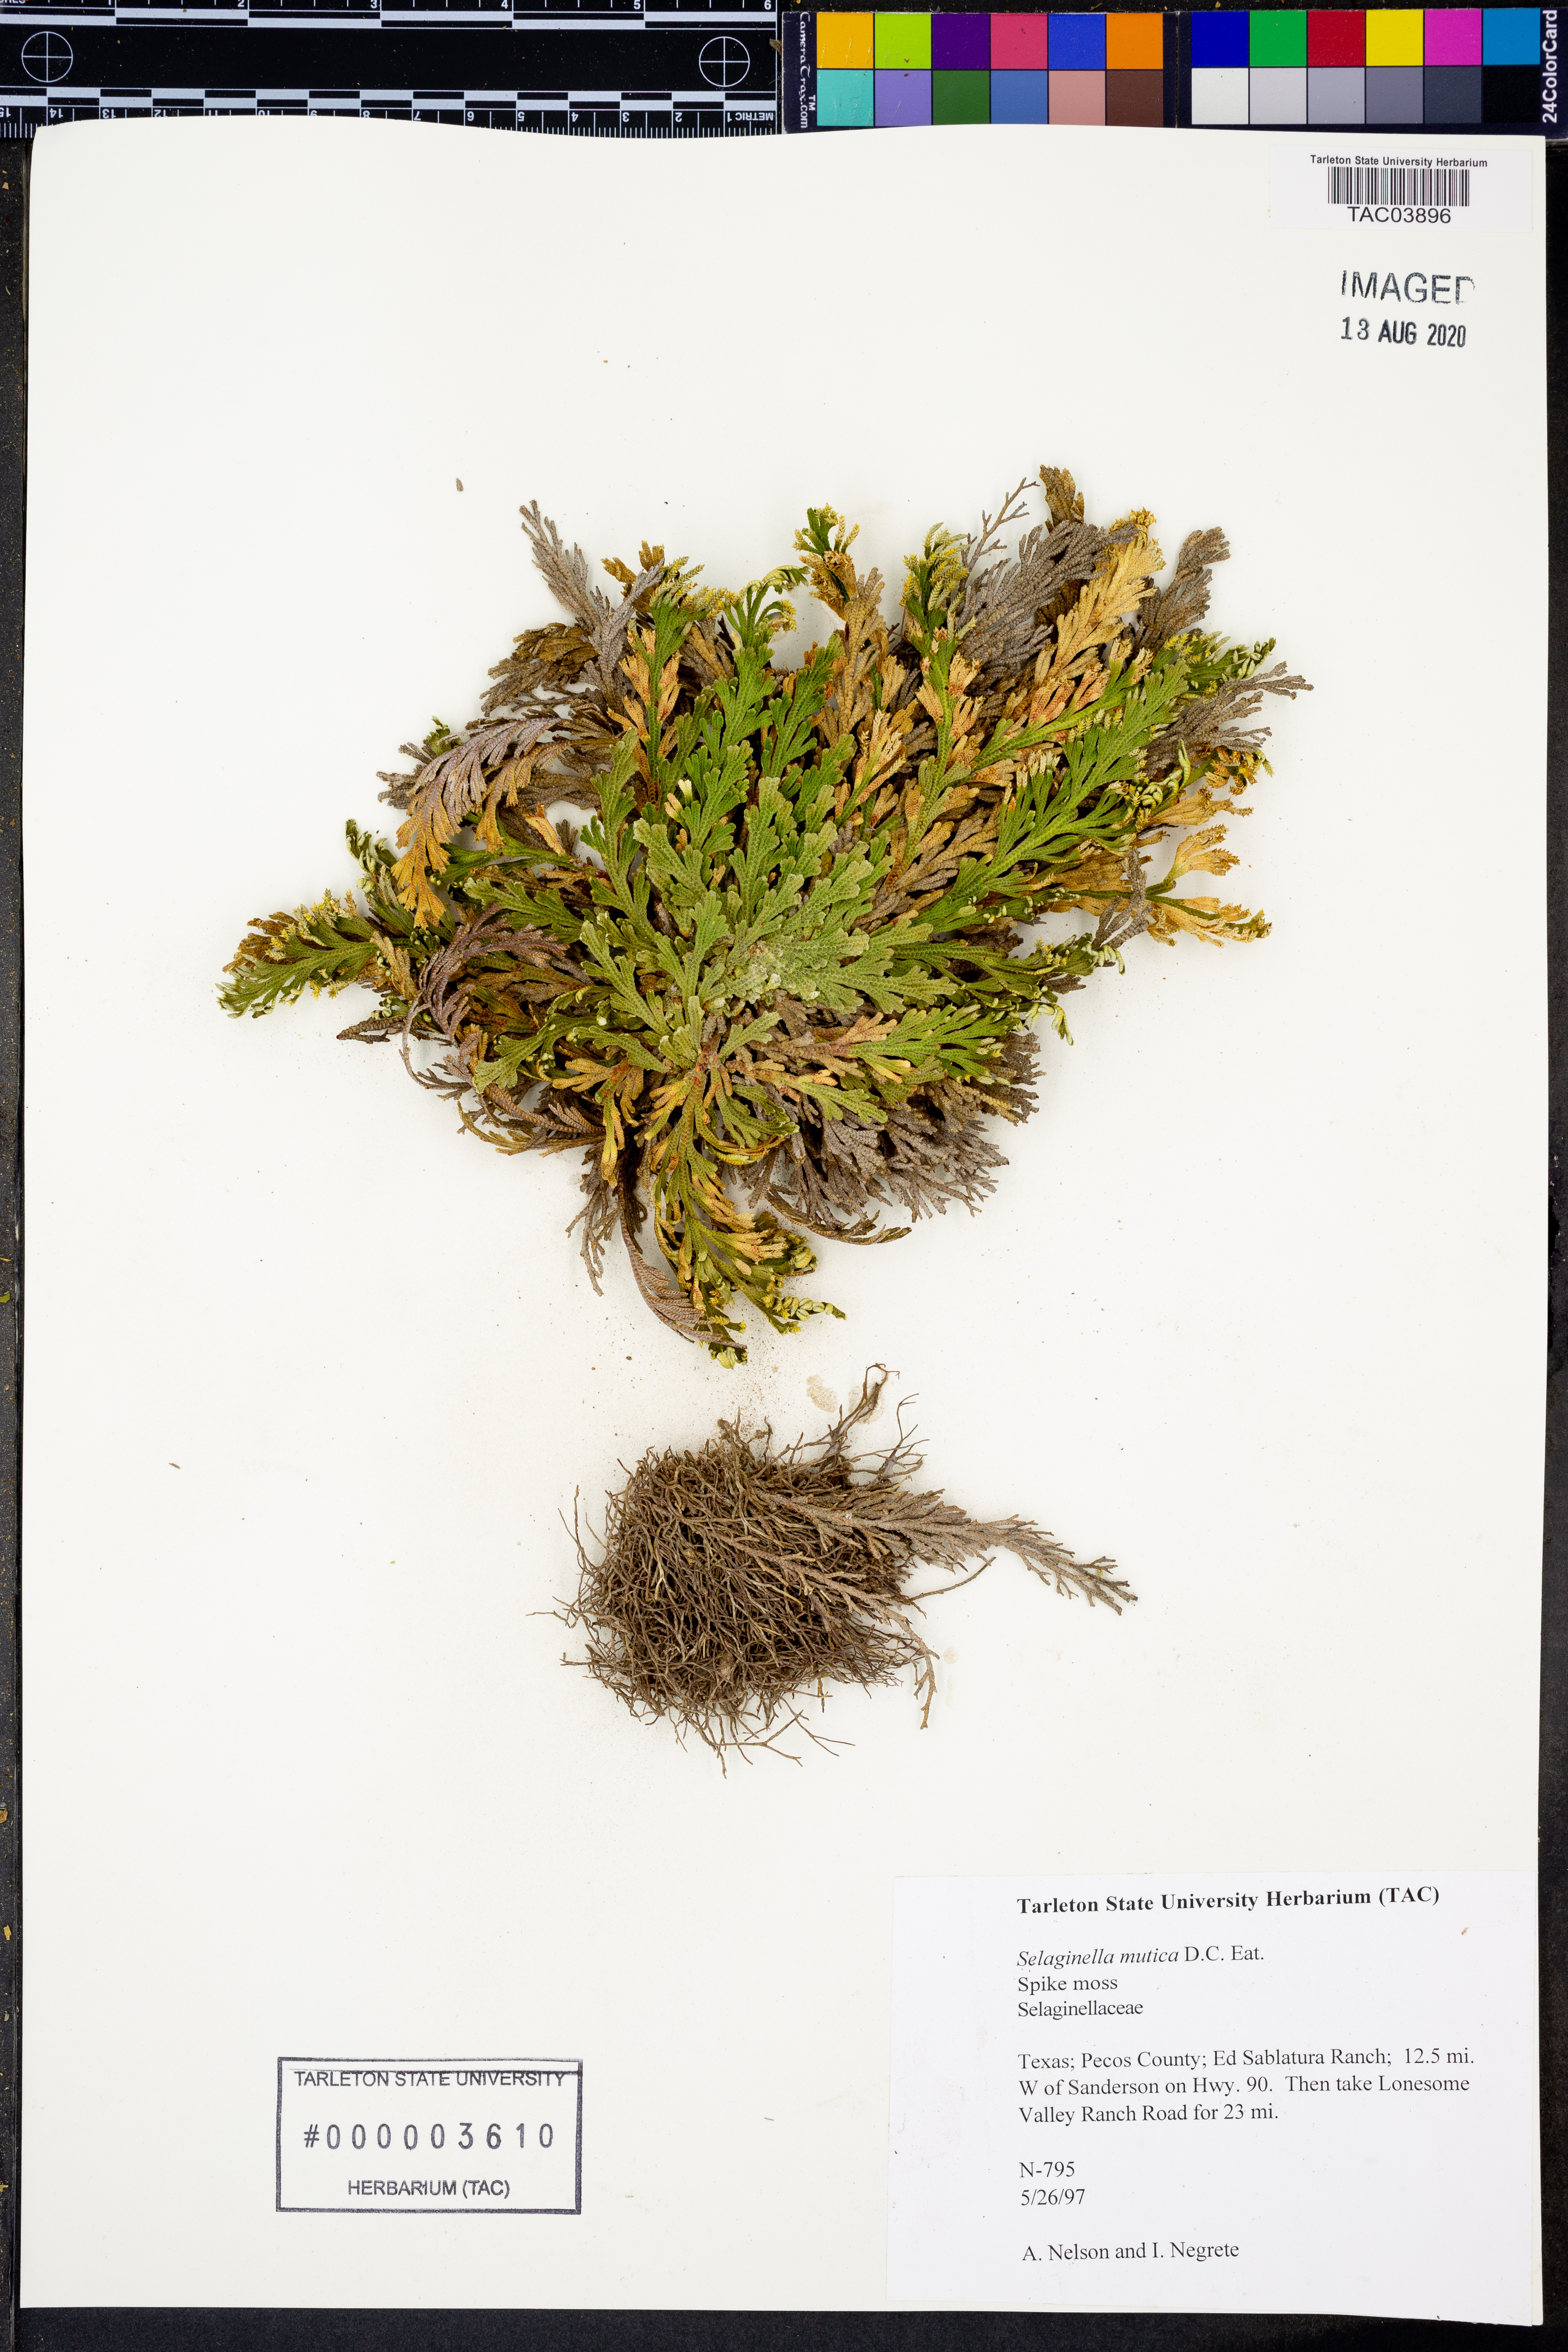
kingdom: Plantae
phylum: Tracheophyta
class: Lycopodiopsida
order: Selaginellales
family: Selaginellaceae
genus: Selaginella
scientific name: Selaginella mutica
